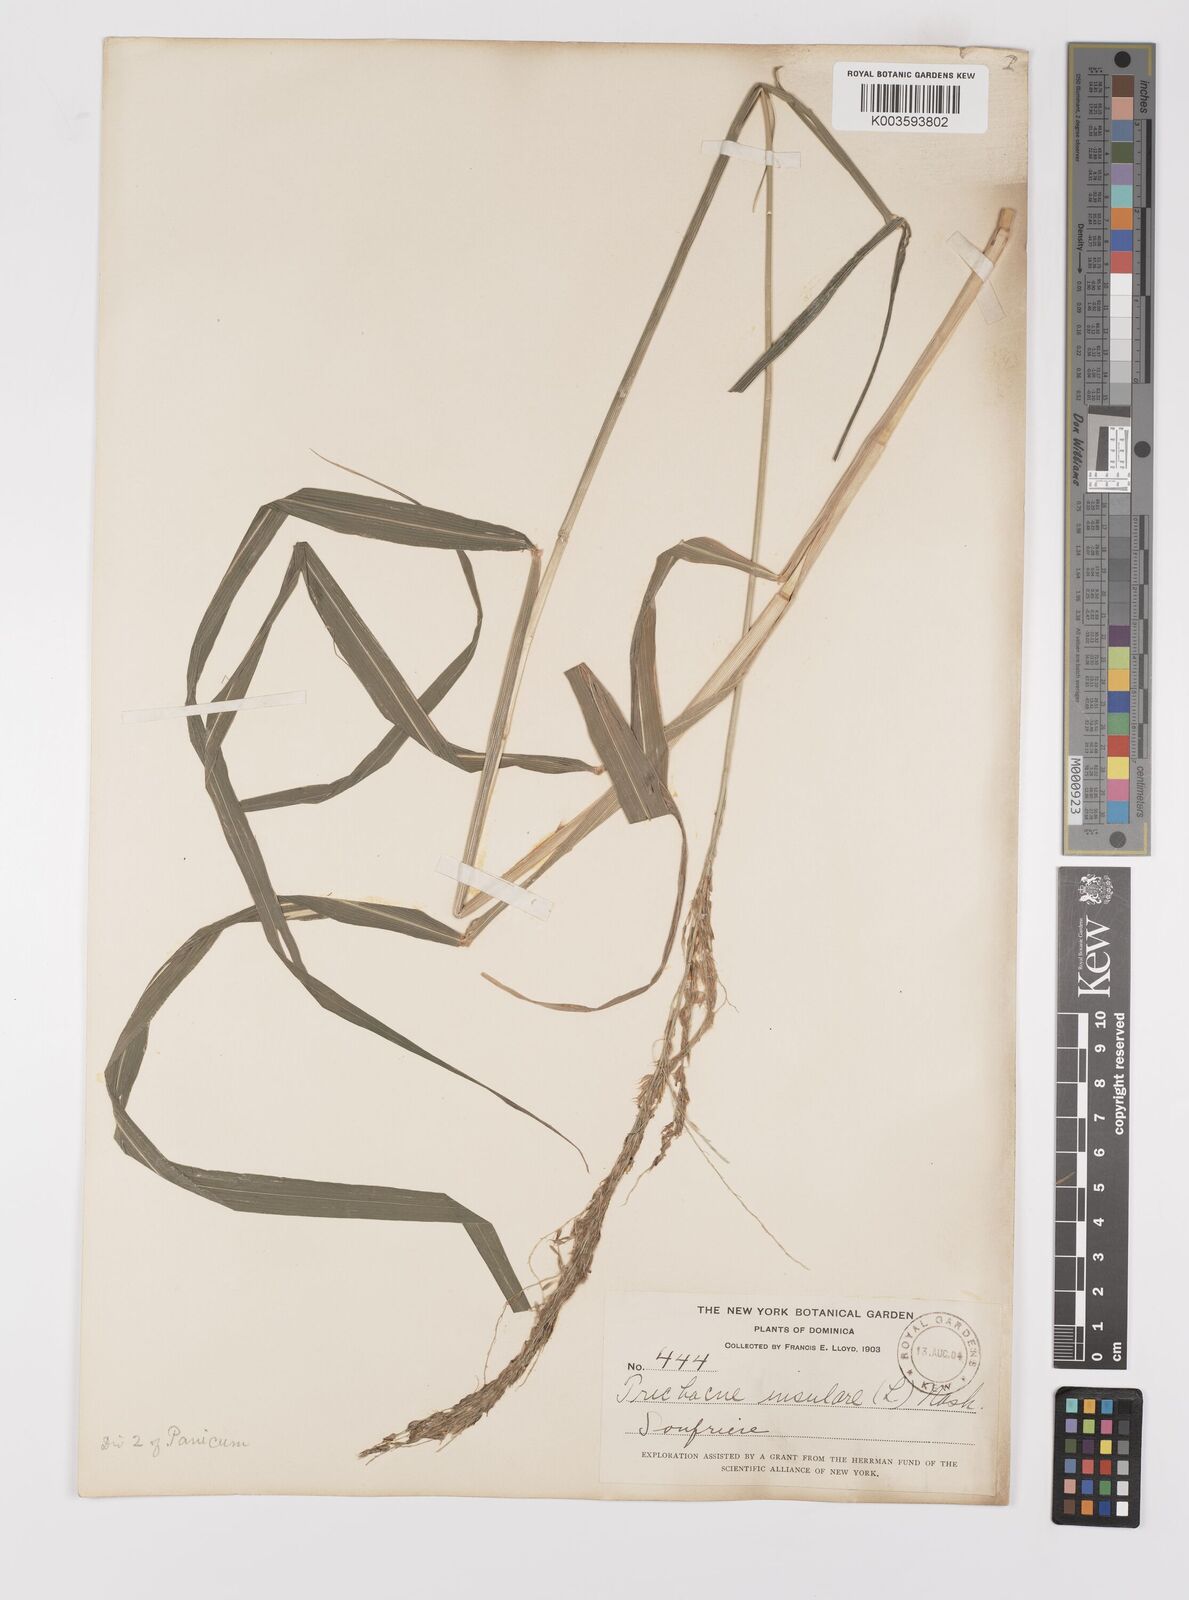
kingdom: Plantae
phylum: Tracheophyta
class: Liliopsida
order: Poales
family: Poaceae
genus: Digitaria
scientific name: Digitaria insularis
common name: Sourgrass
